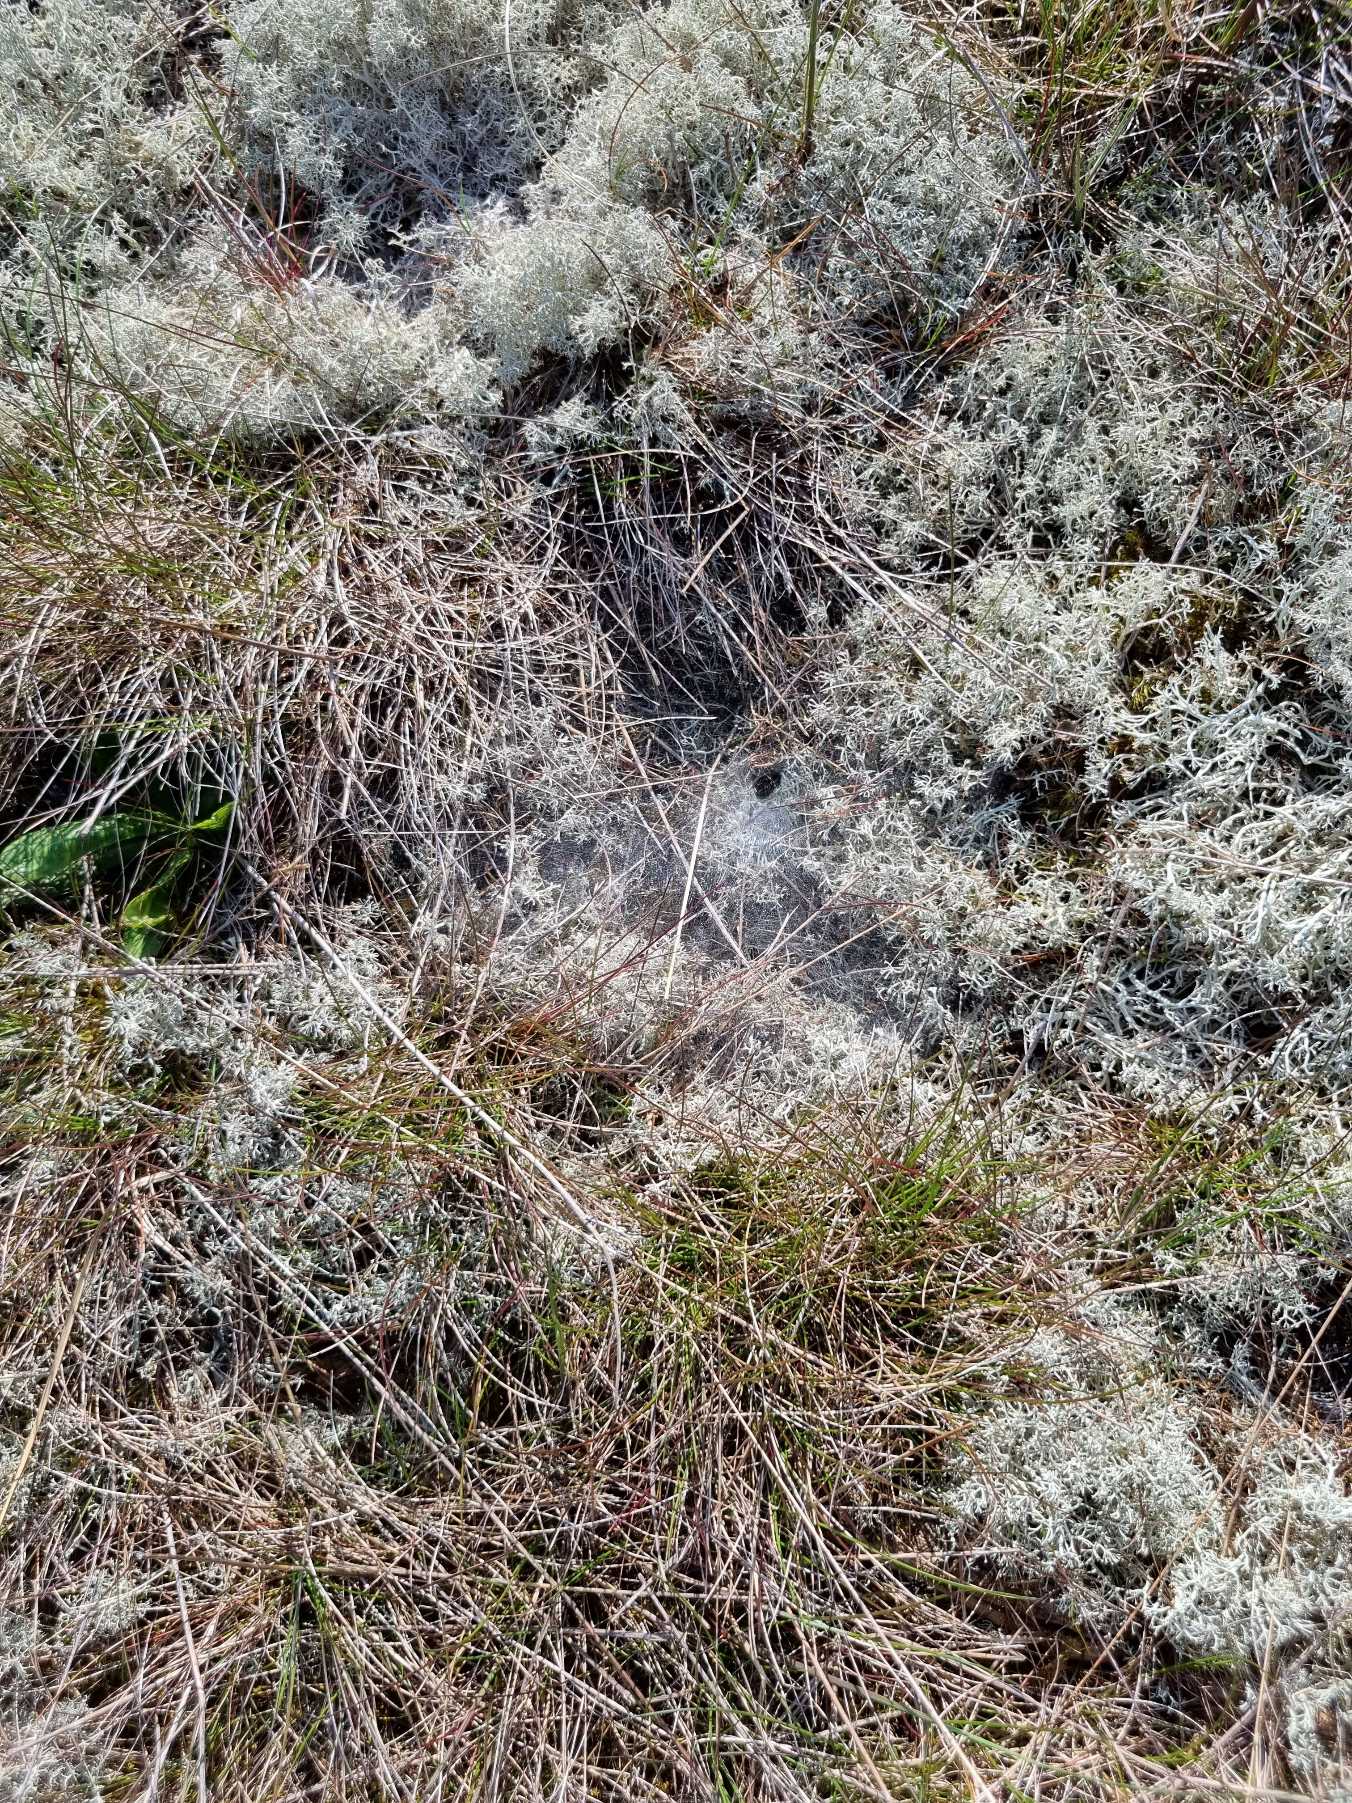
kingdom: Animalia
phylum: Arthropoda
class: Arachnida
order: Araneae
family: Agelenidae
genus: Agelena
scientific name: Agelena labyrinthica
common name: Labyrintedderkop
